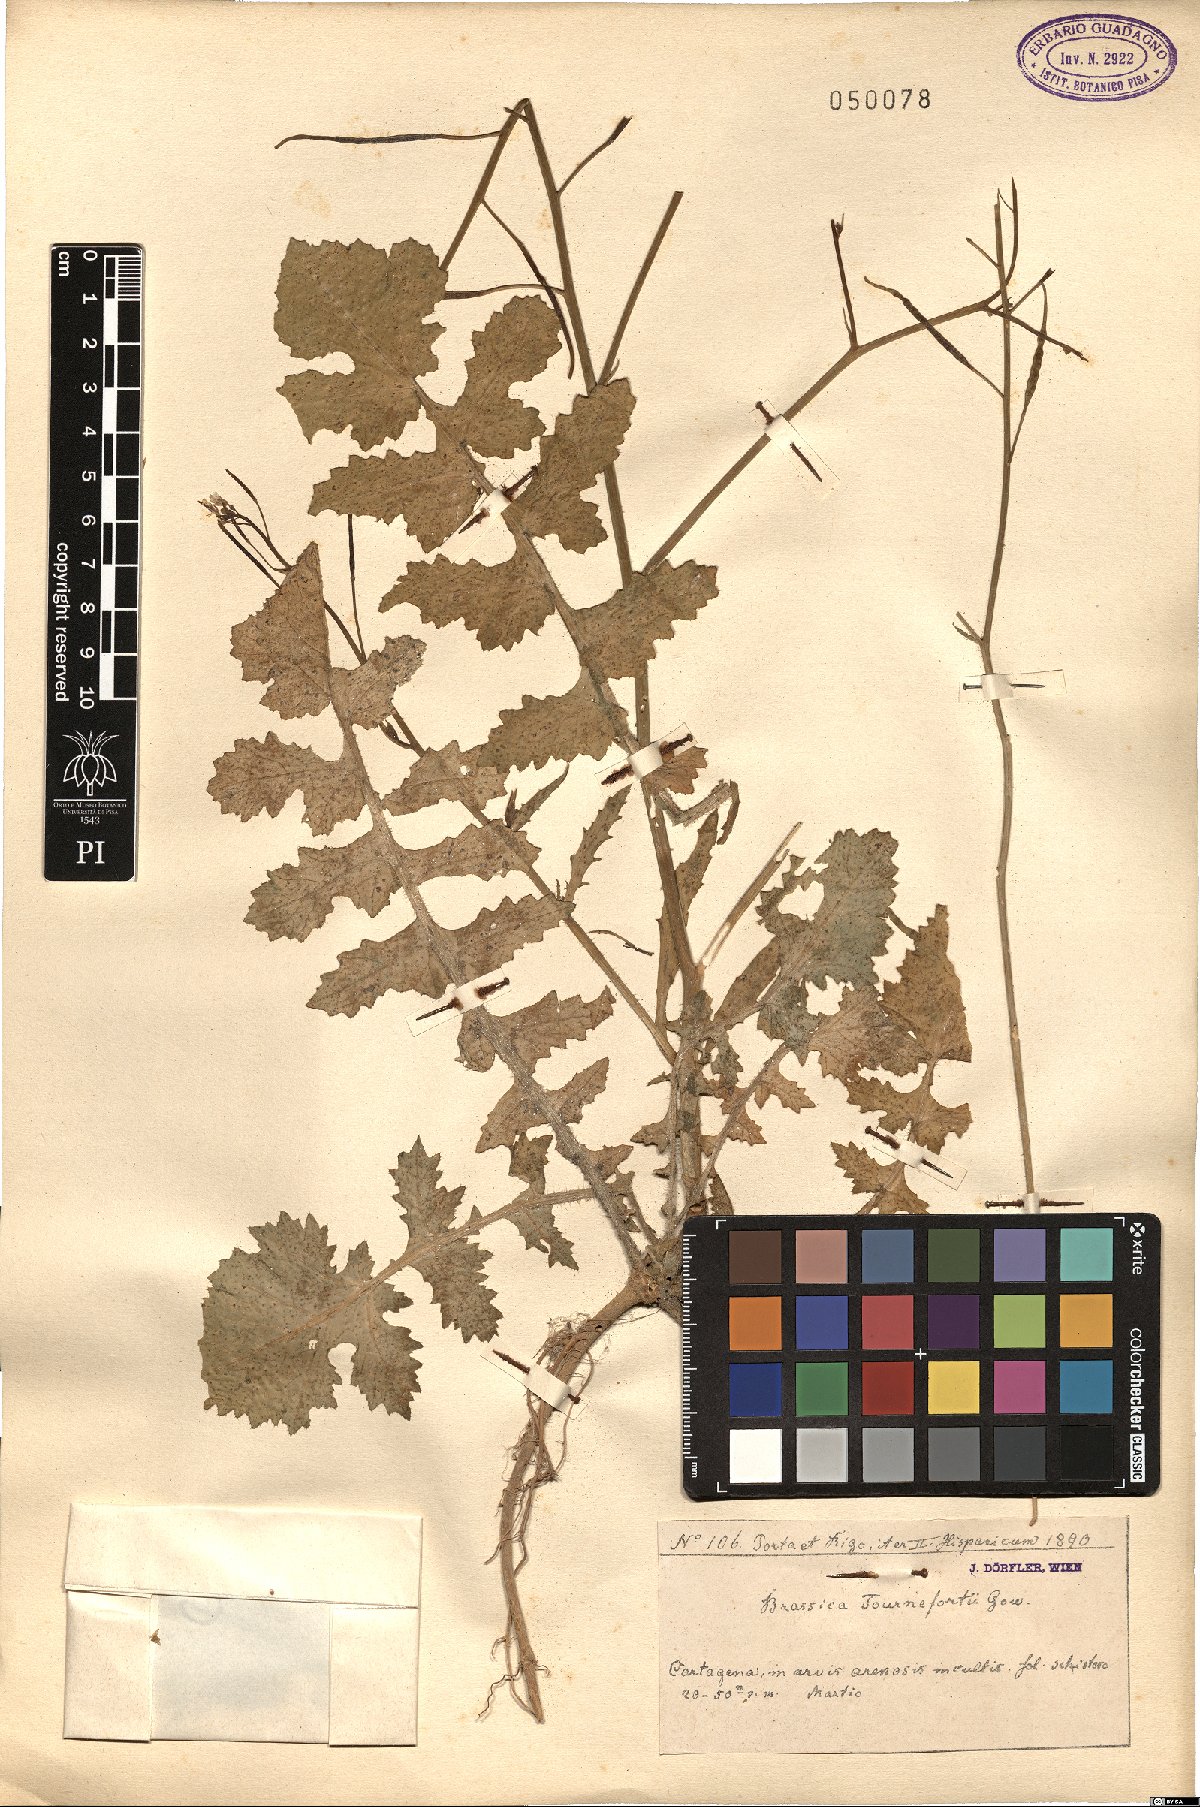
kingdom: Plantae
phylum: Tracheophyta
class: Magnoliopsida
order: Brassicales
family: Brassicaceae
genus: Brassica
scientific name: Brassica tournefortii
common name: Pale cabbage
